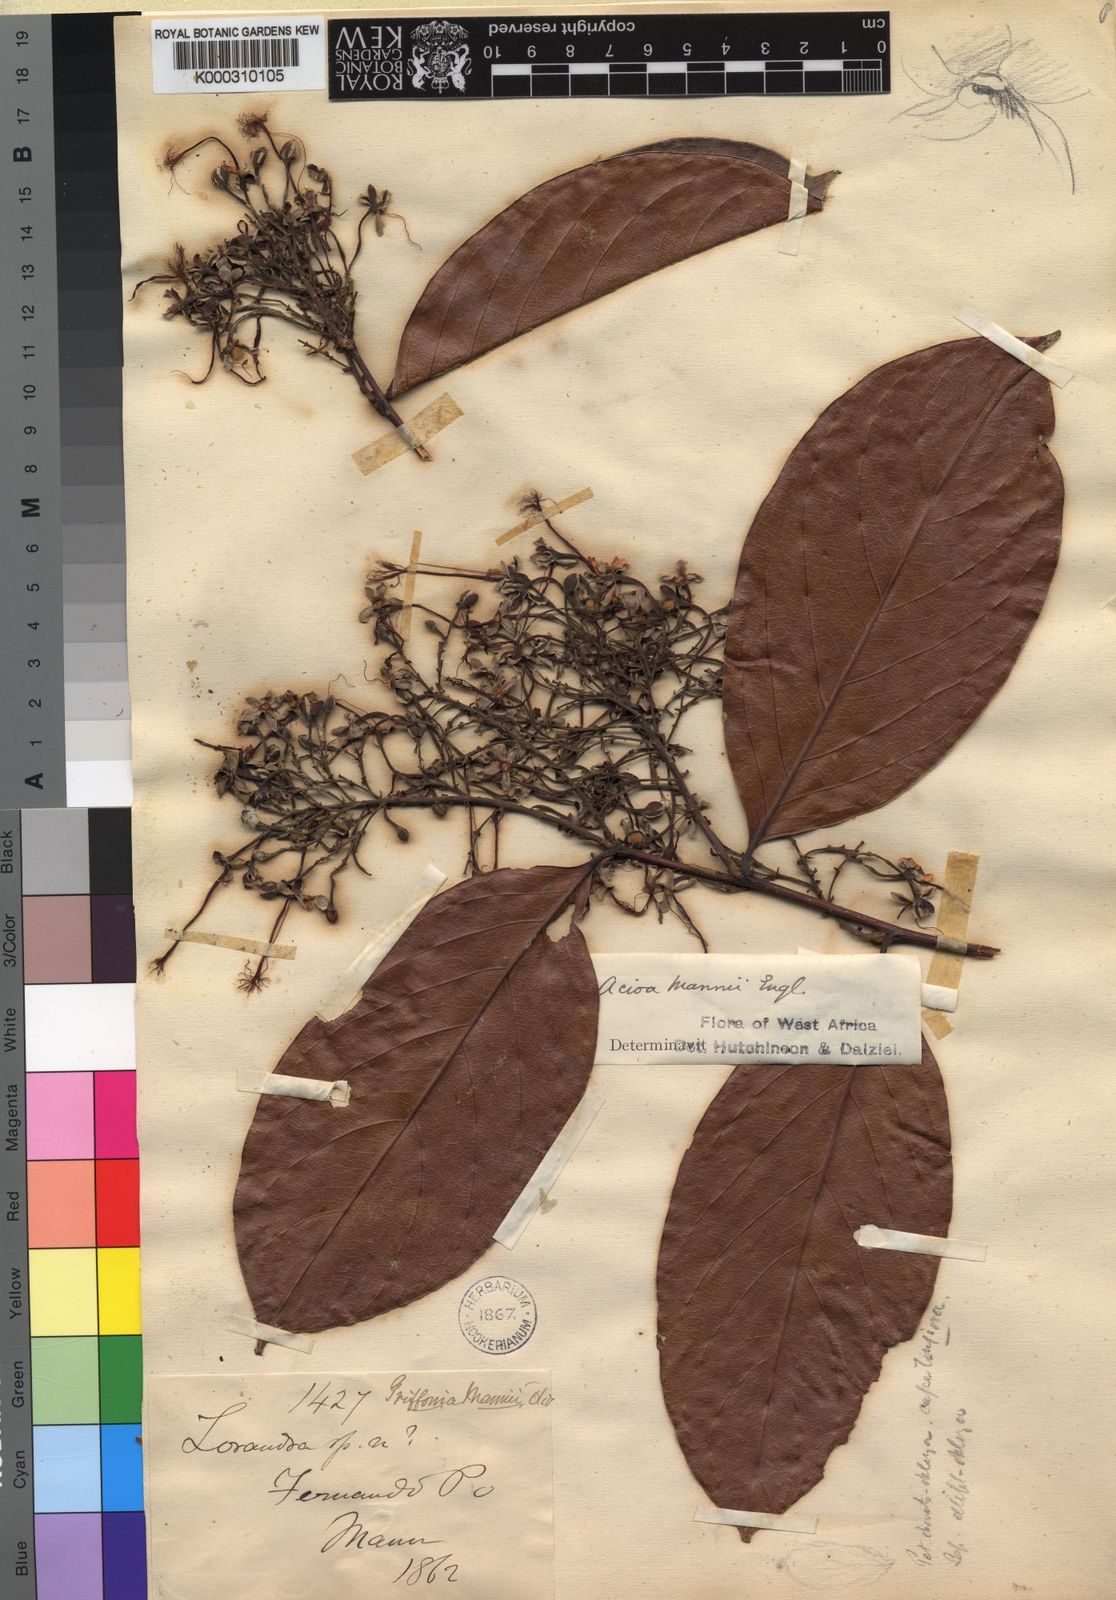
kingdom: Plantae
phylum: Tracheophyta
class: Magnoliopsida
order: Malpighiales
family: Chrysobalanaceae
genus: Dactyladenia
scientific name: Dactyladenia mannii
